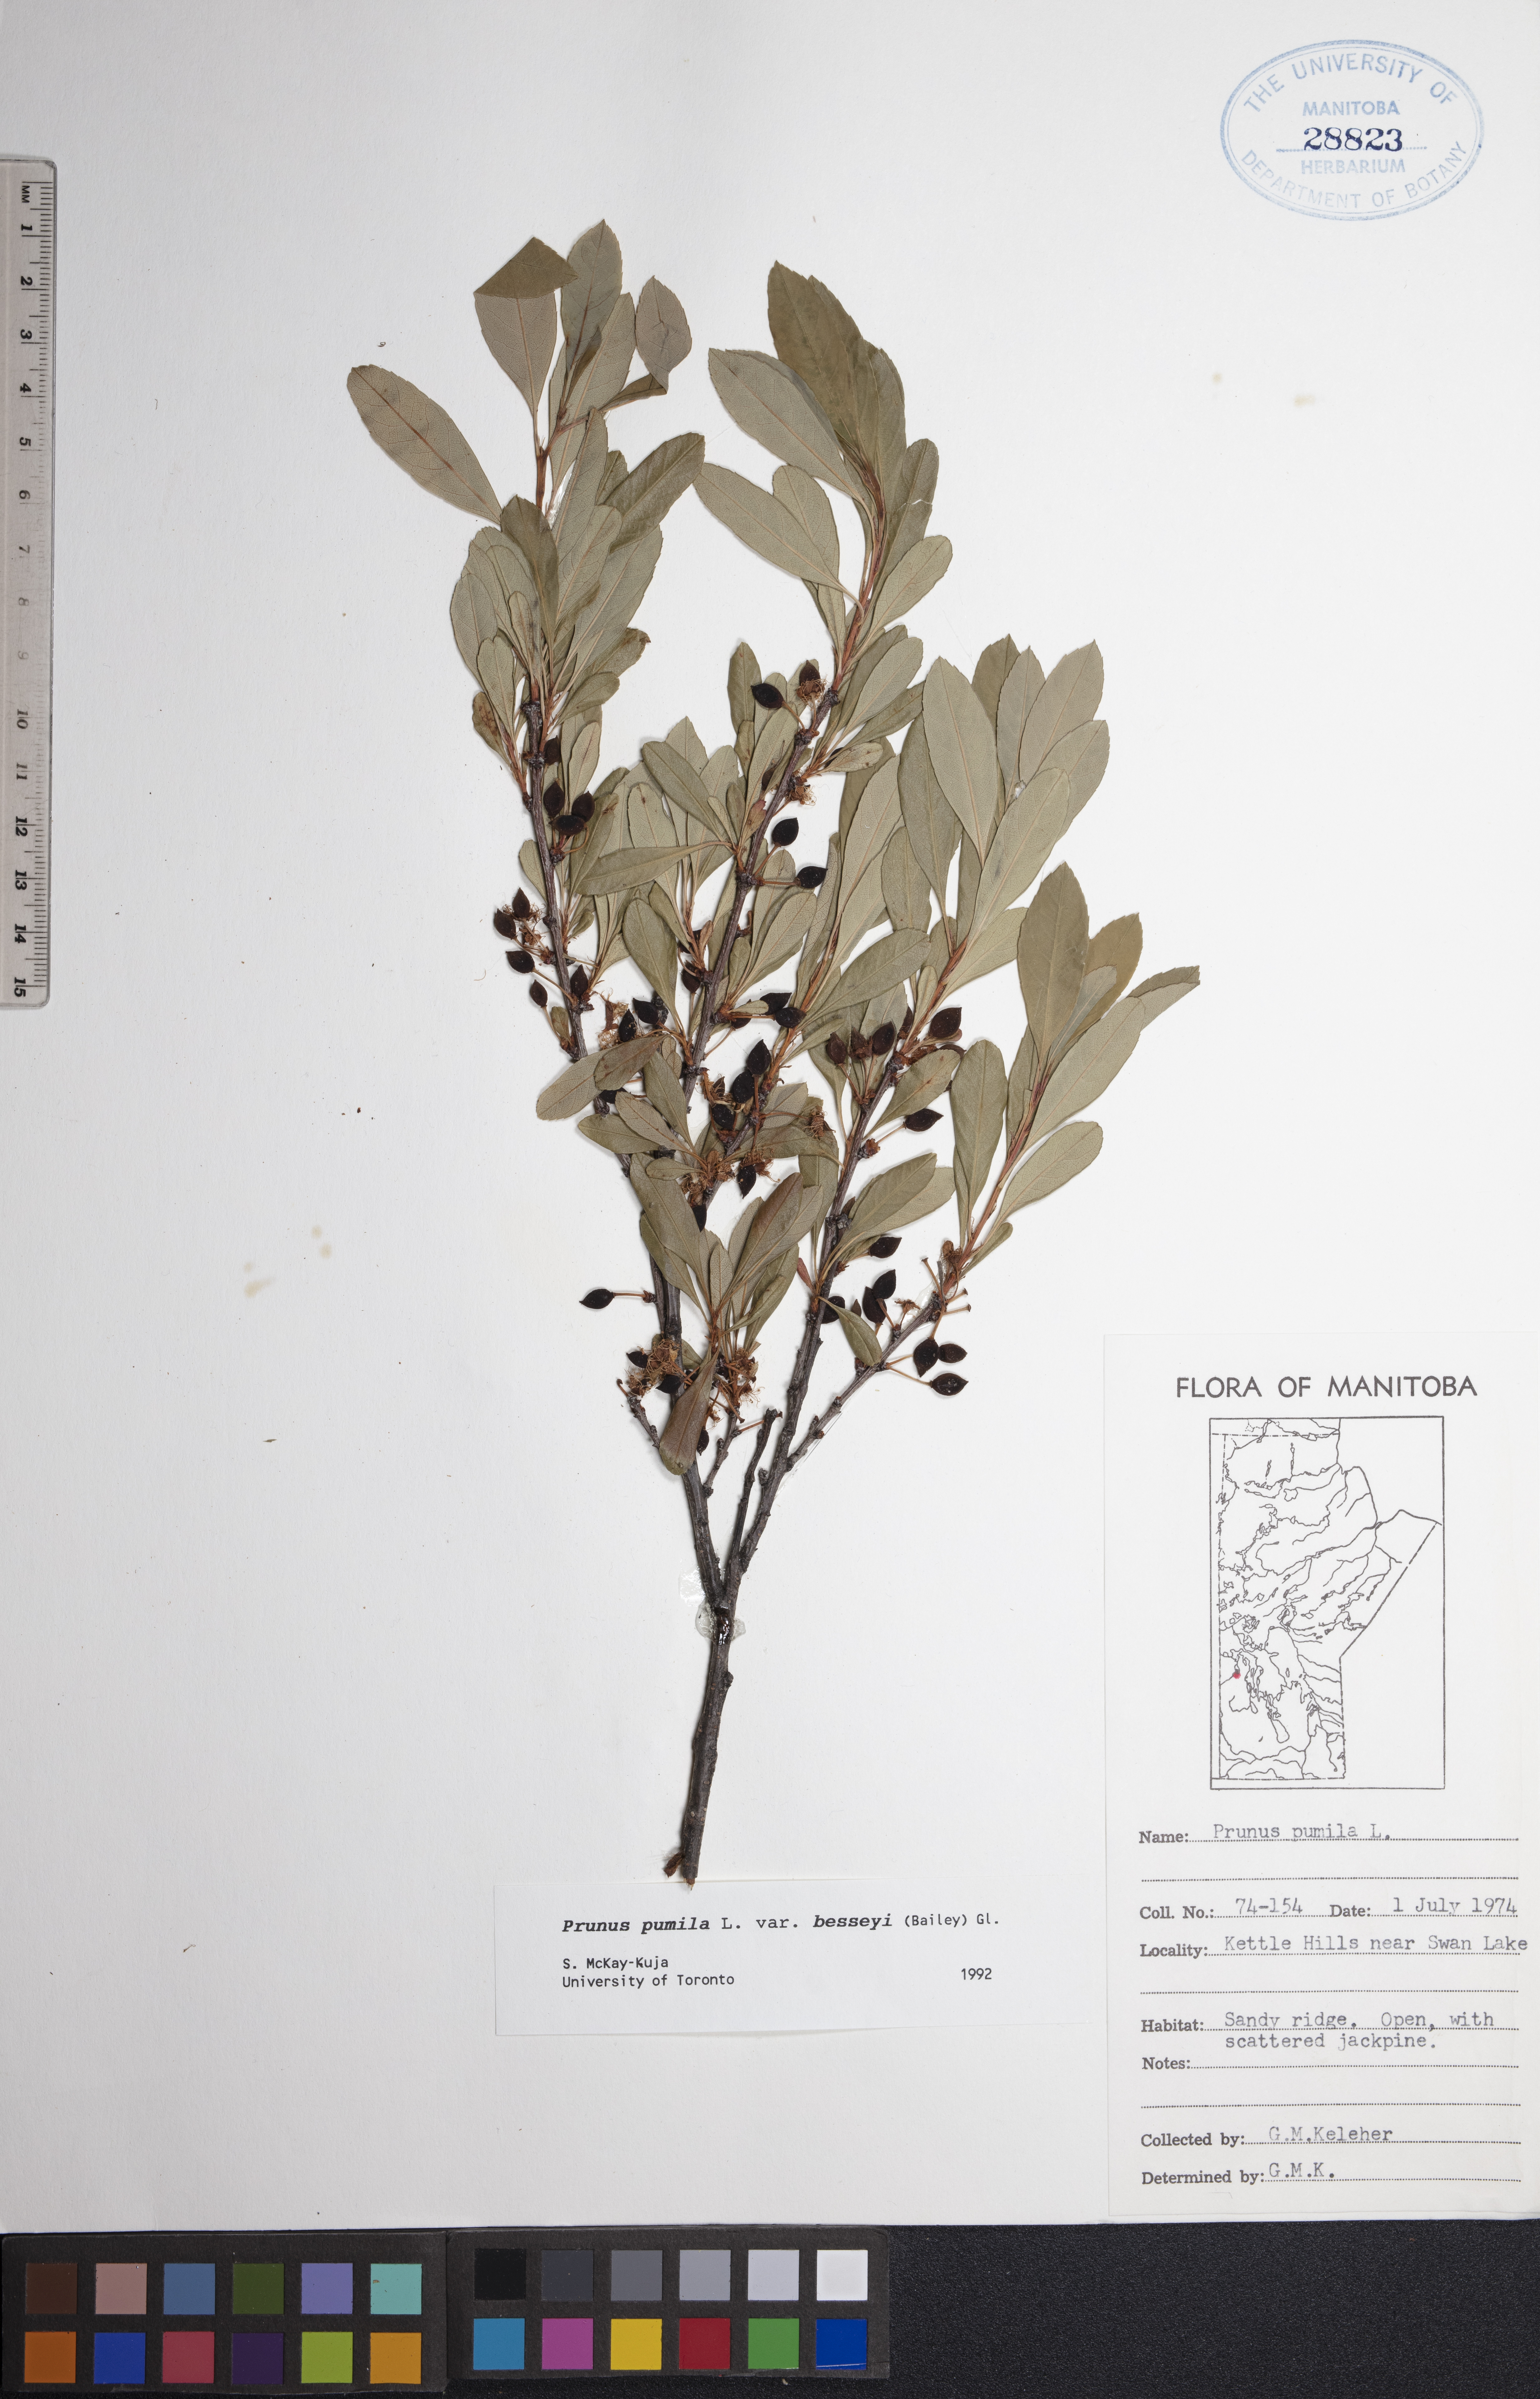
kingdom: Plantae
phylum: Tracheophyta
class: Magnoliopsida
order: Rosales
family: Rosaceae
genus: Prunus
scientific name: Prunus pumila
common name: Dwarf cherry
